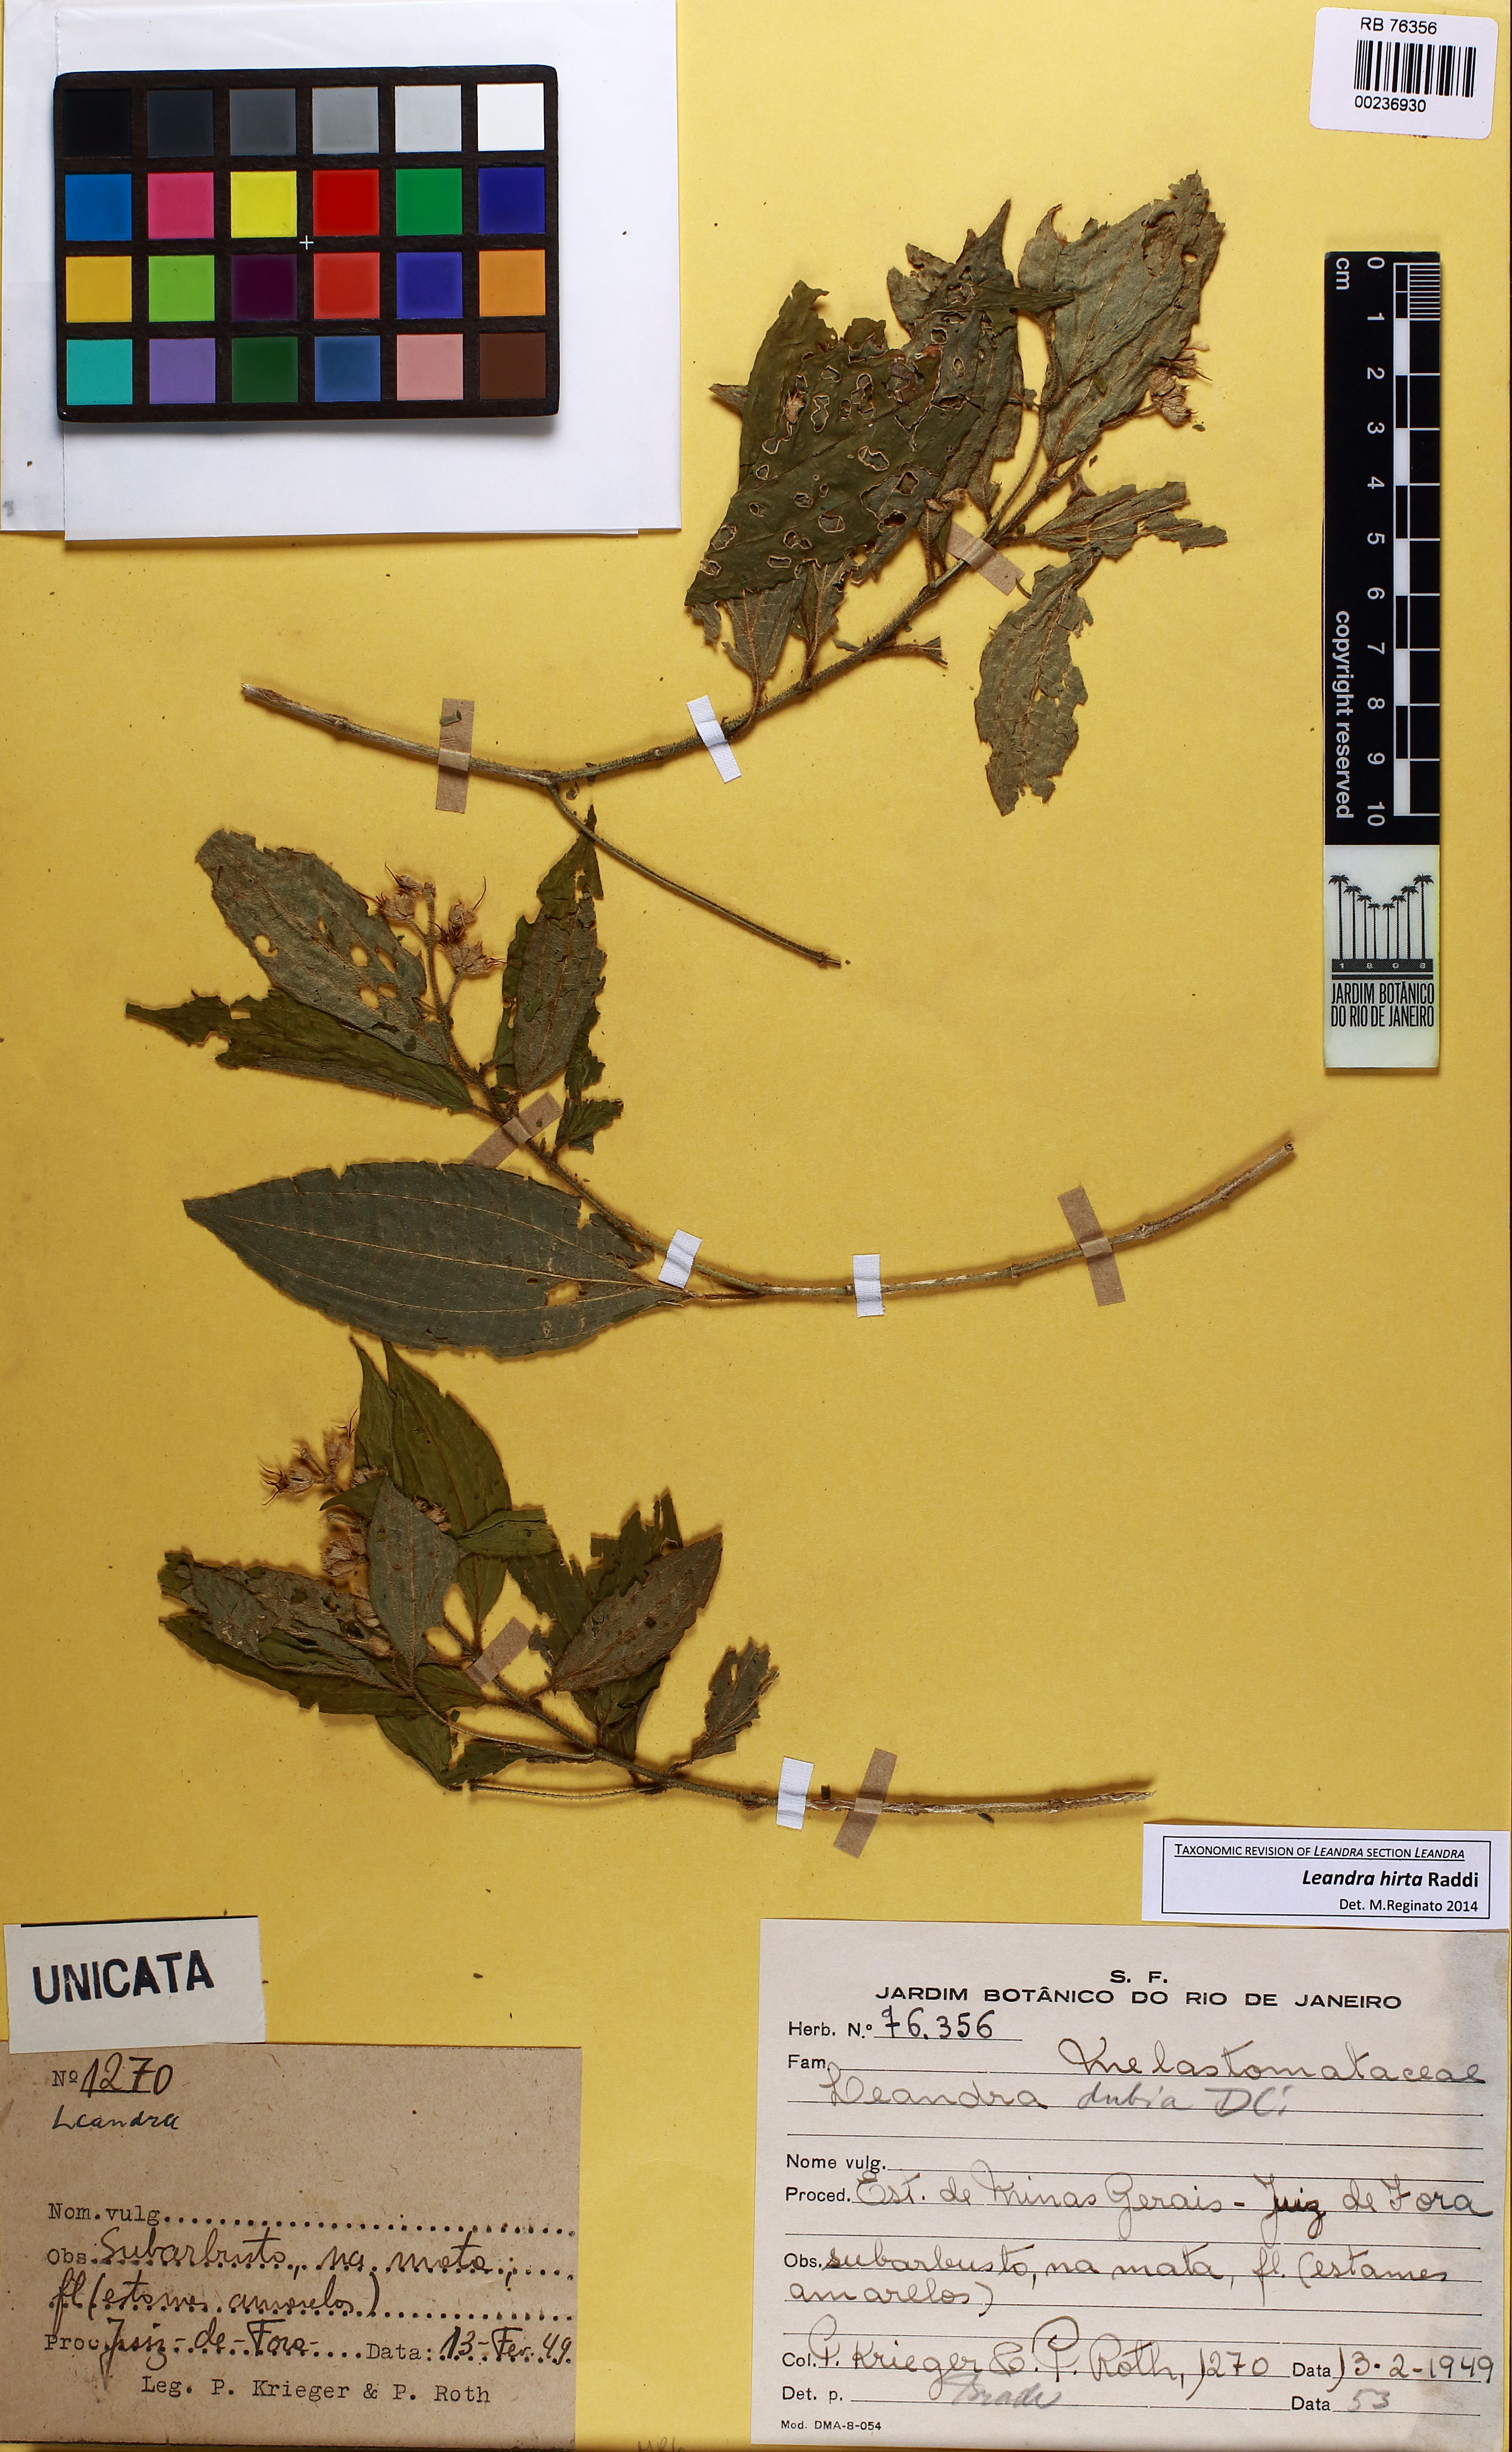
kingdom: Plantae
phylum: Tracheophyta
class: Magnoliopsida
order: Myrtales
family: Melastomataceae
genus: Miconia
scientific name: Miconia dubia
